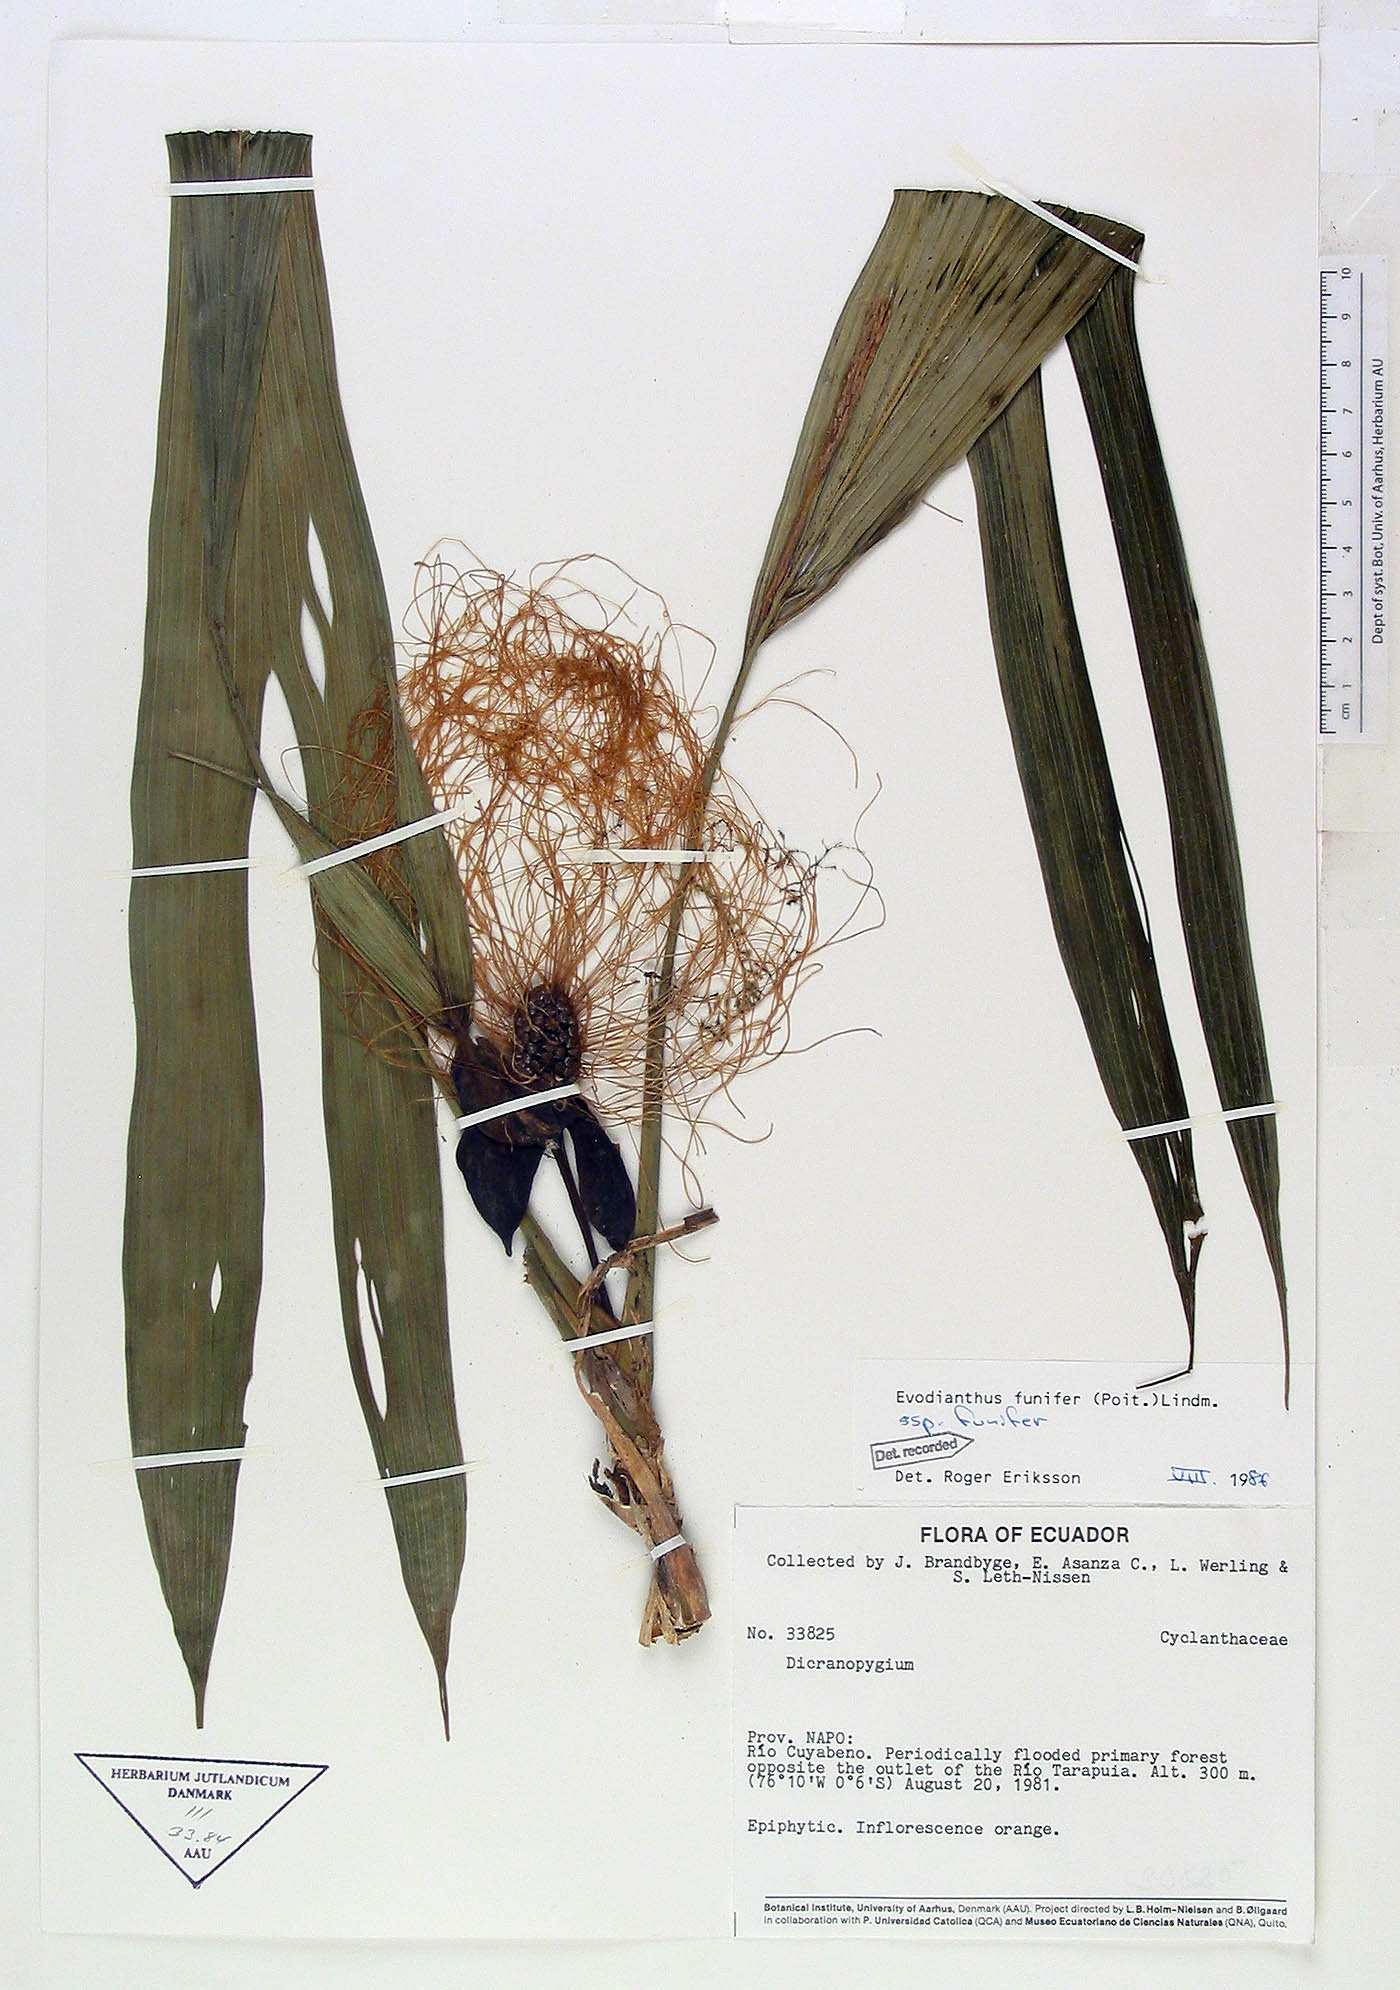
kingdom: Plantae
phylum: Tracheophyta
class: Liliopsida
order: Pandanales
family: Cyclanthaceae
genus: Evodianthus
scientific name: Evodianthus funifer
